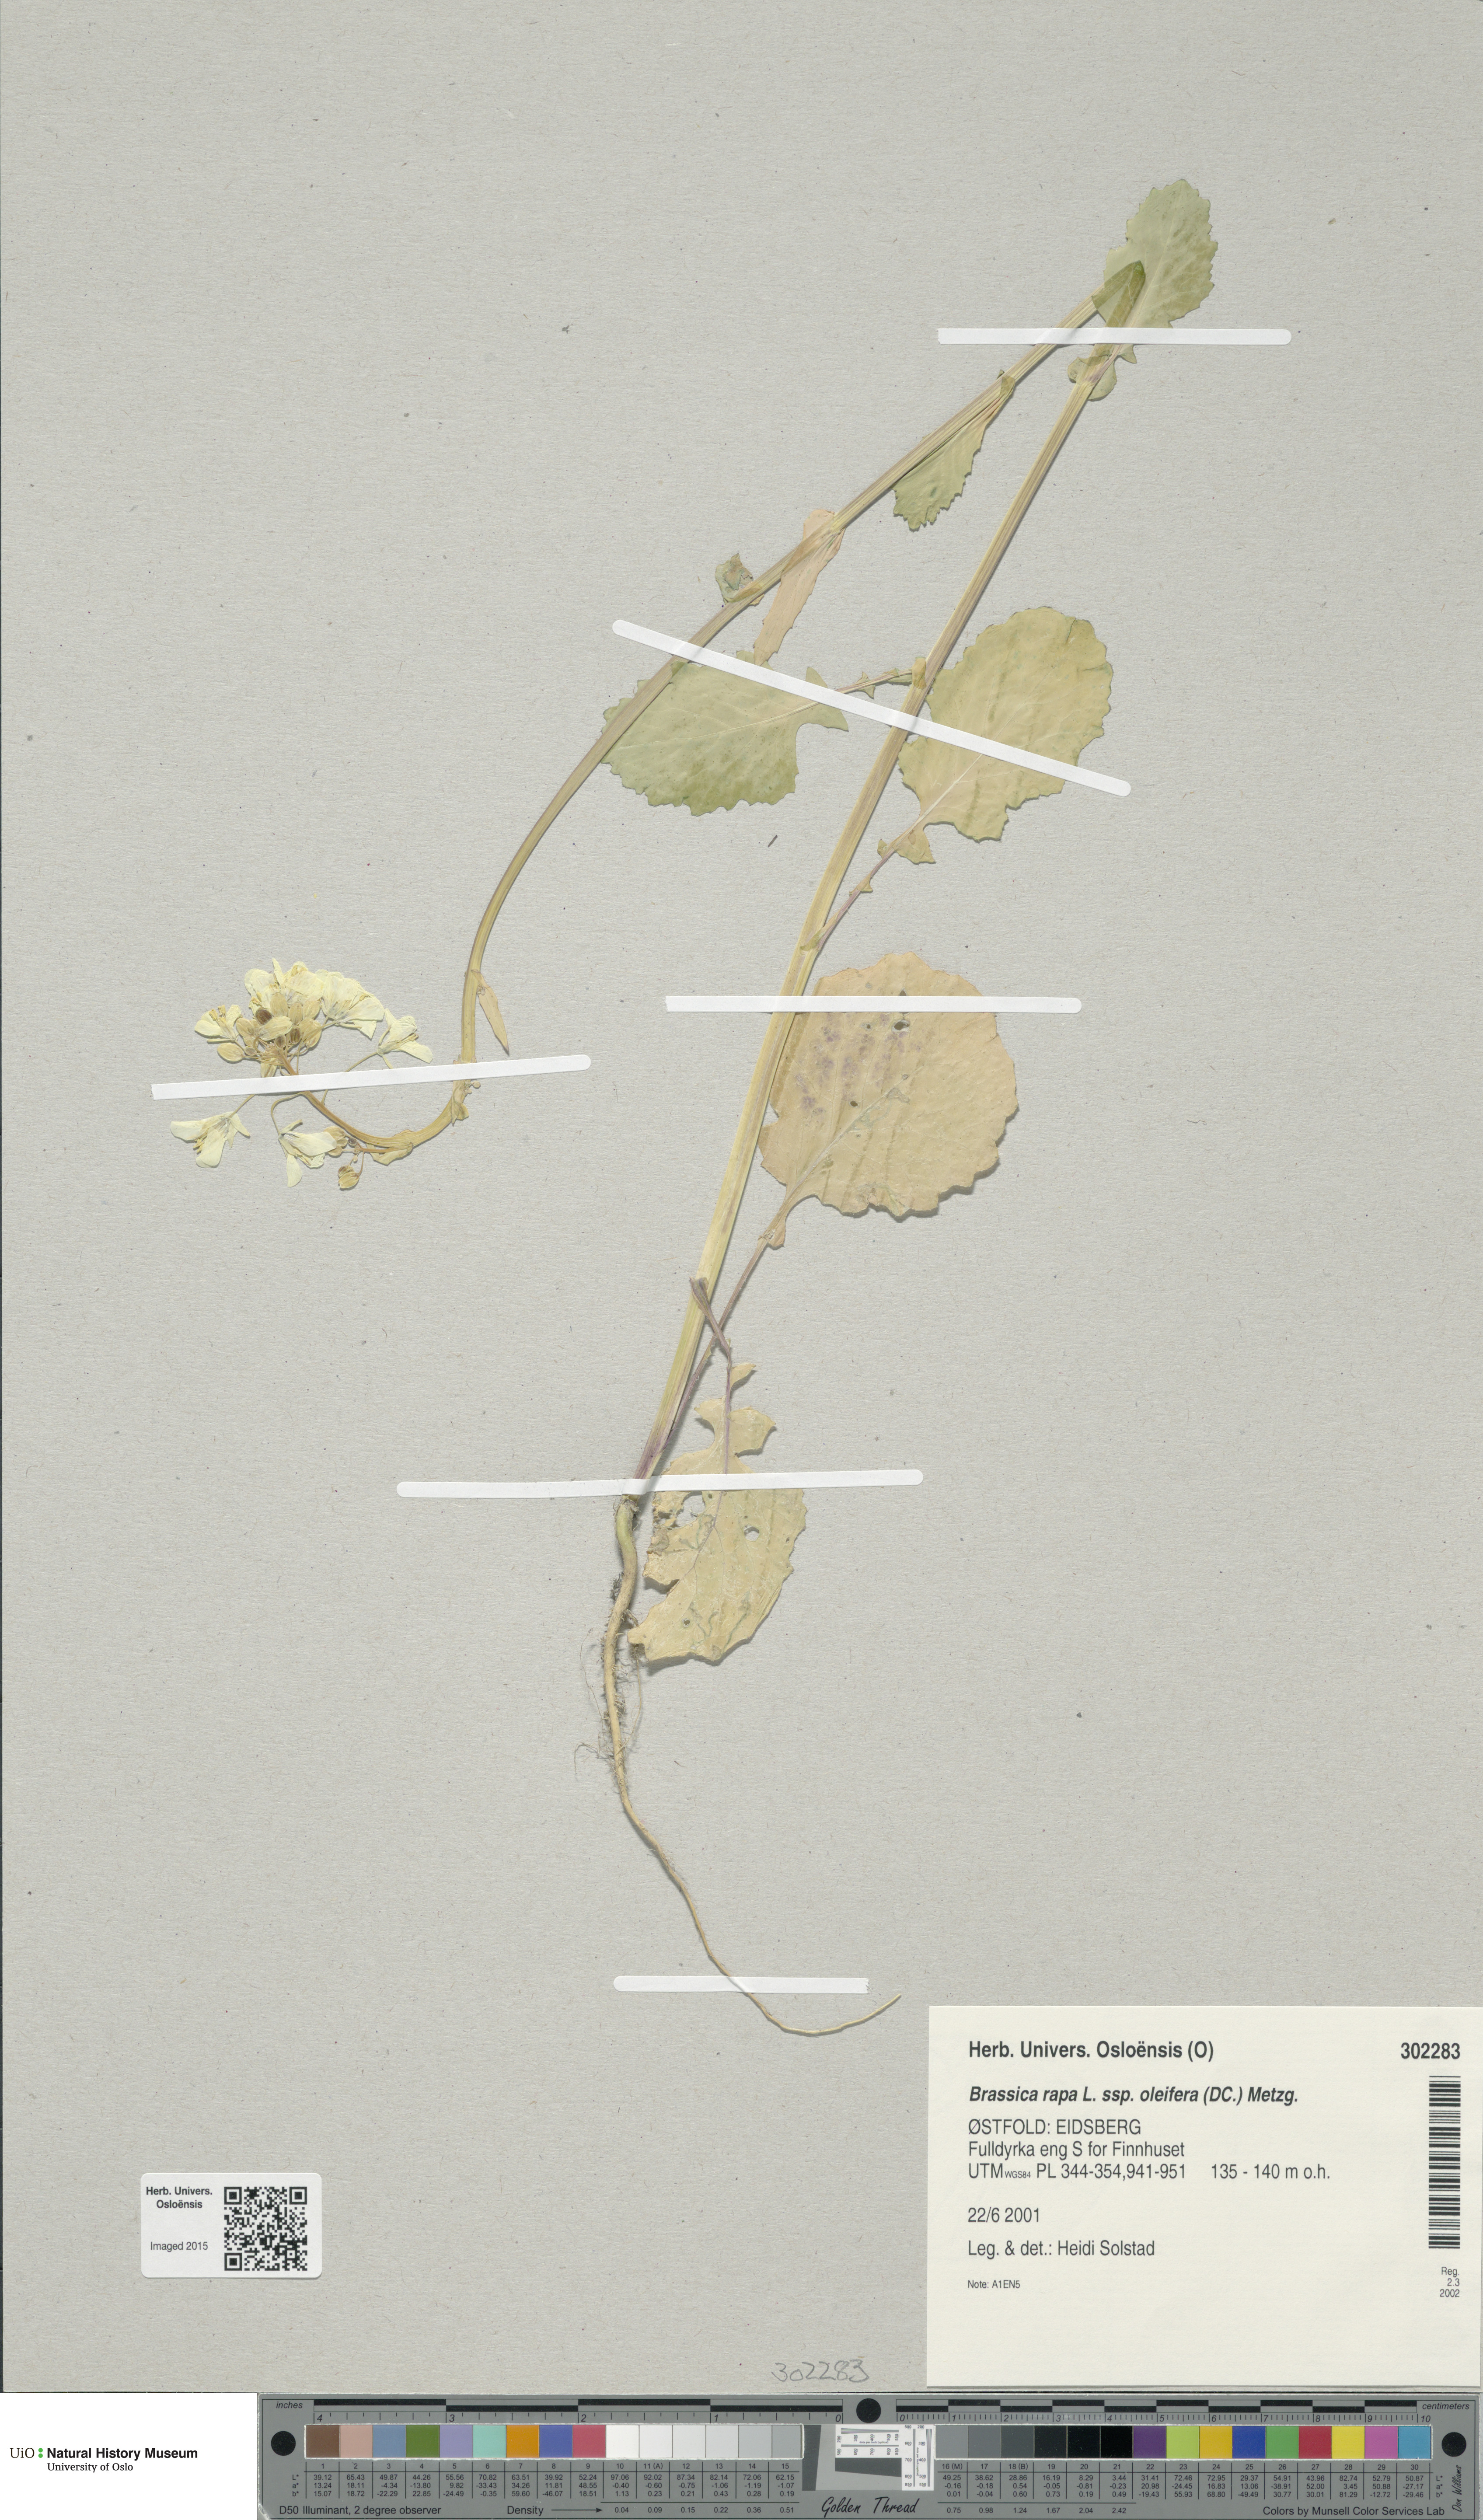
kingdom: Plantae
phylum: Tracheophyta
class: Magnoliopsida
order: Brassicales
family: Brassicaceae
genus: Brassica
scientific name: Brassica rapa
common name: Field mustard
